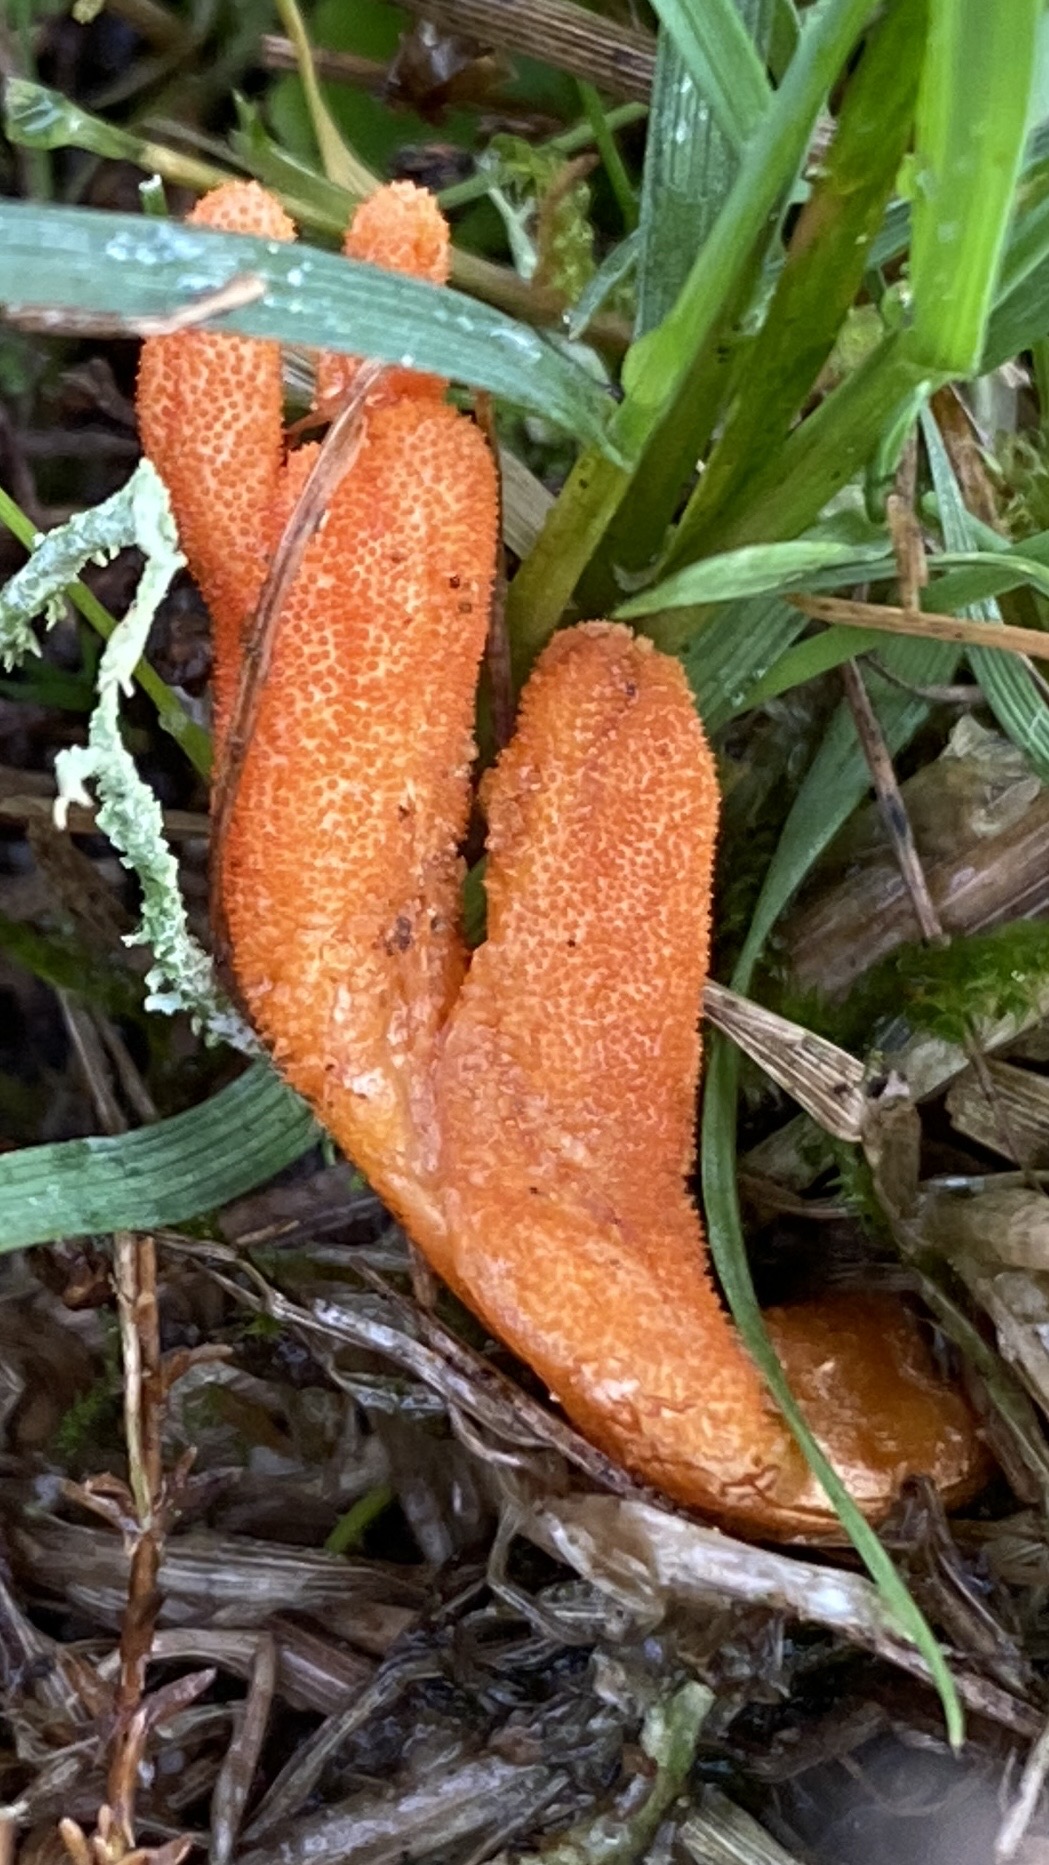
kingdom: Fungi
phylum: Ascomycota
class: Sordariomycetes
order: Hypocreales
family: Cordycipitaceae
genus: Cordyceps
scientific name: Cordyceps militaris
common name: puppe-snyltekølle
